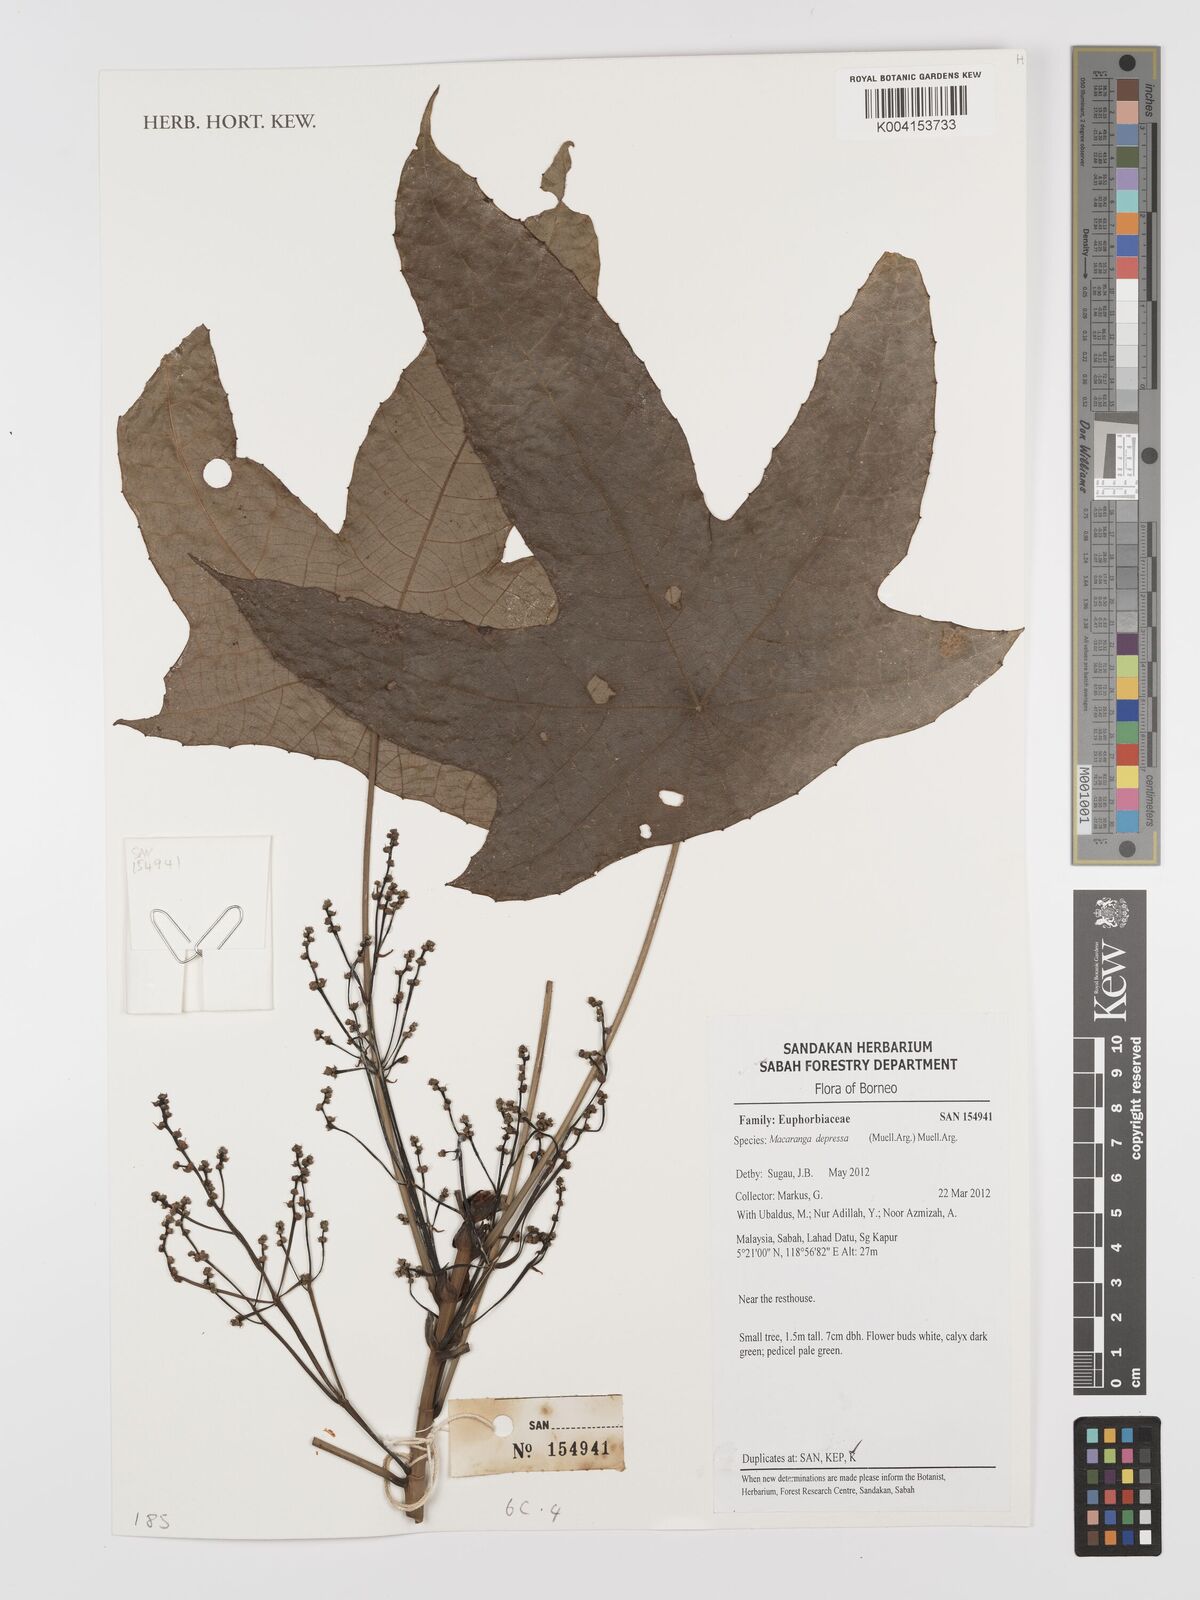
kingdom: Plantae
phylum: Tracheophyta
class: Magnoliopsida
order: Malpighiales
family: Euphorbiaceae
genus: Macaranga
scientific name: Macaranga depressa
